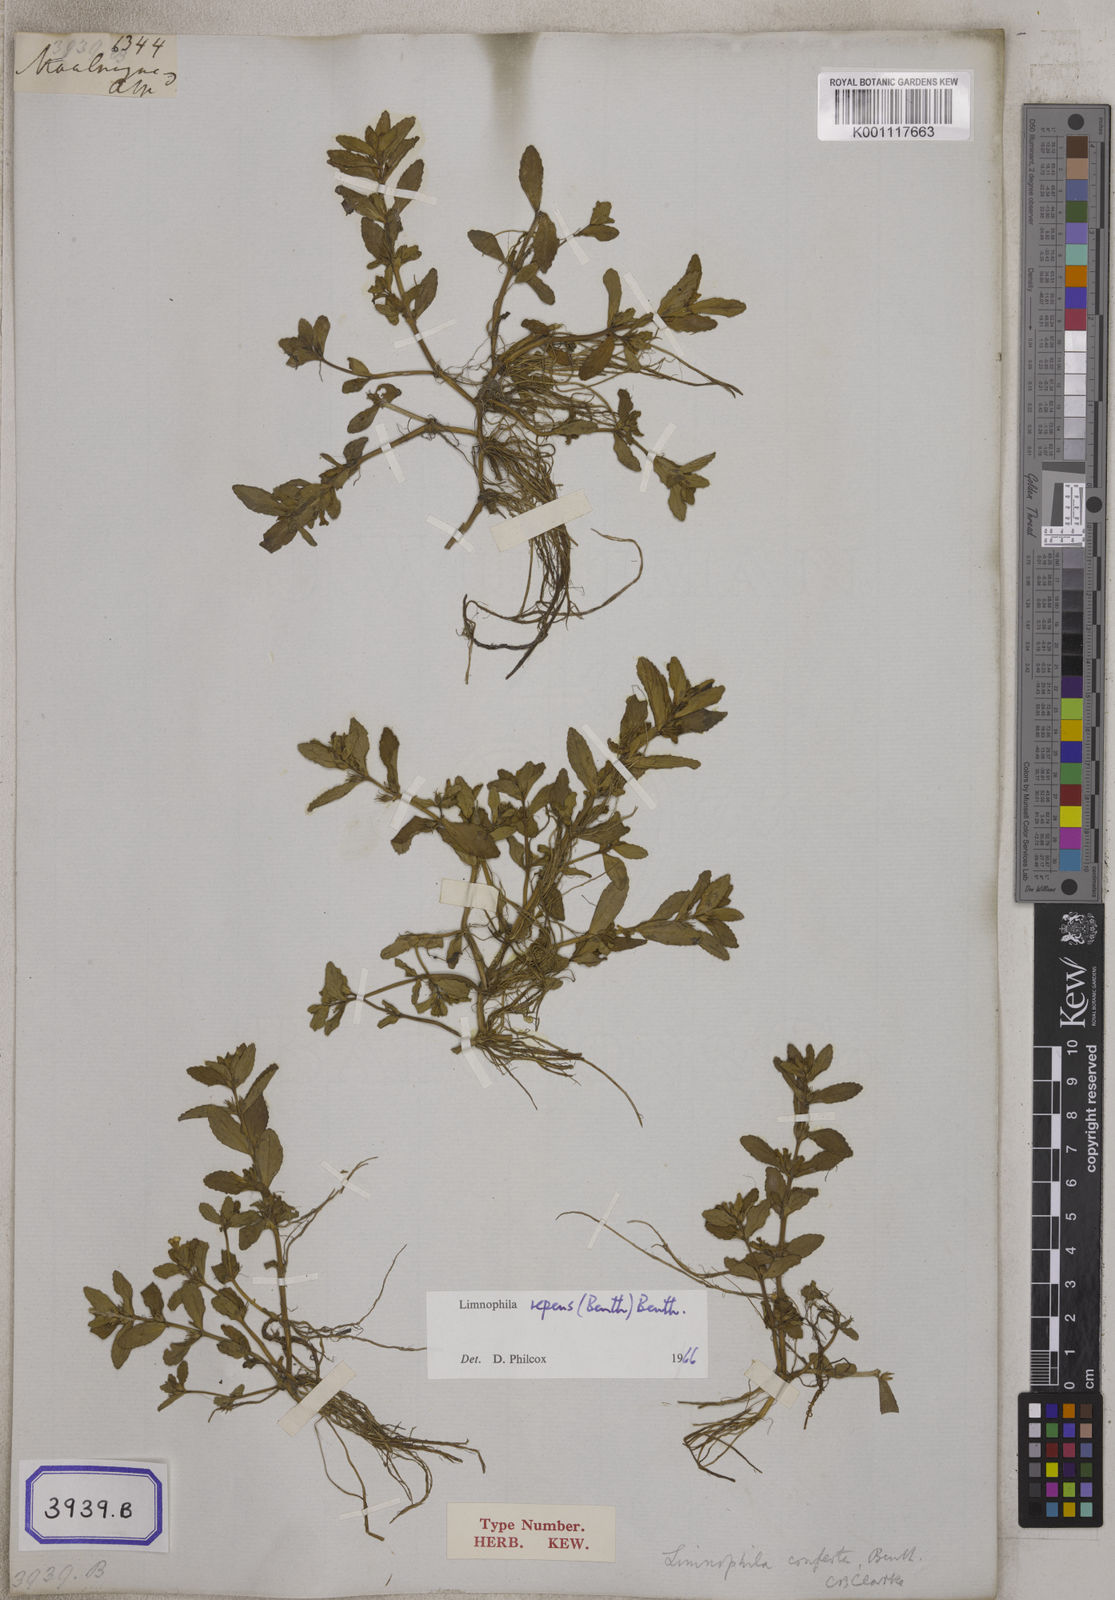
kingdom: Plantae
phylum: Tracheophyta
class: Magnoliopsida
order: Lamiales
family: Plantaginaceae
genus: Stemodia
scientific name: Stemodia
